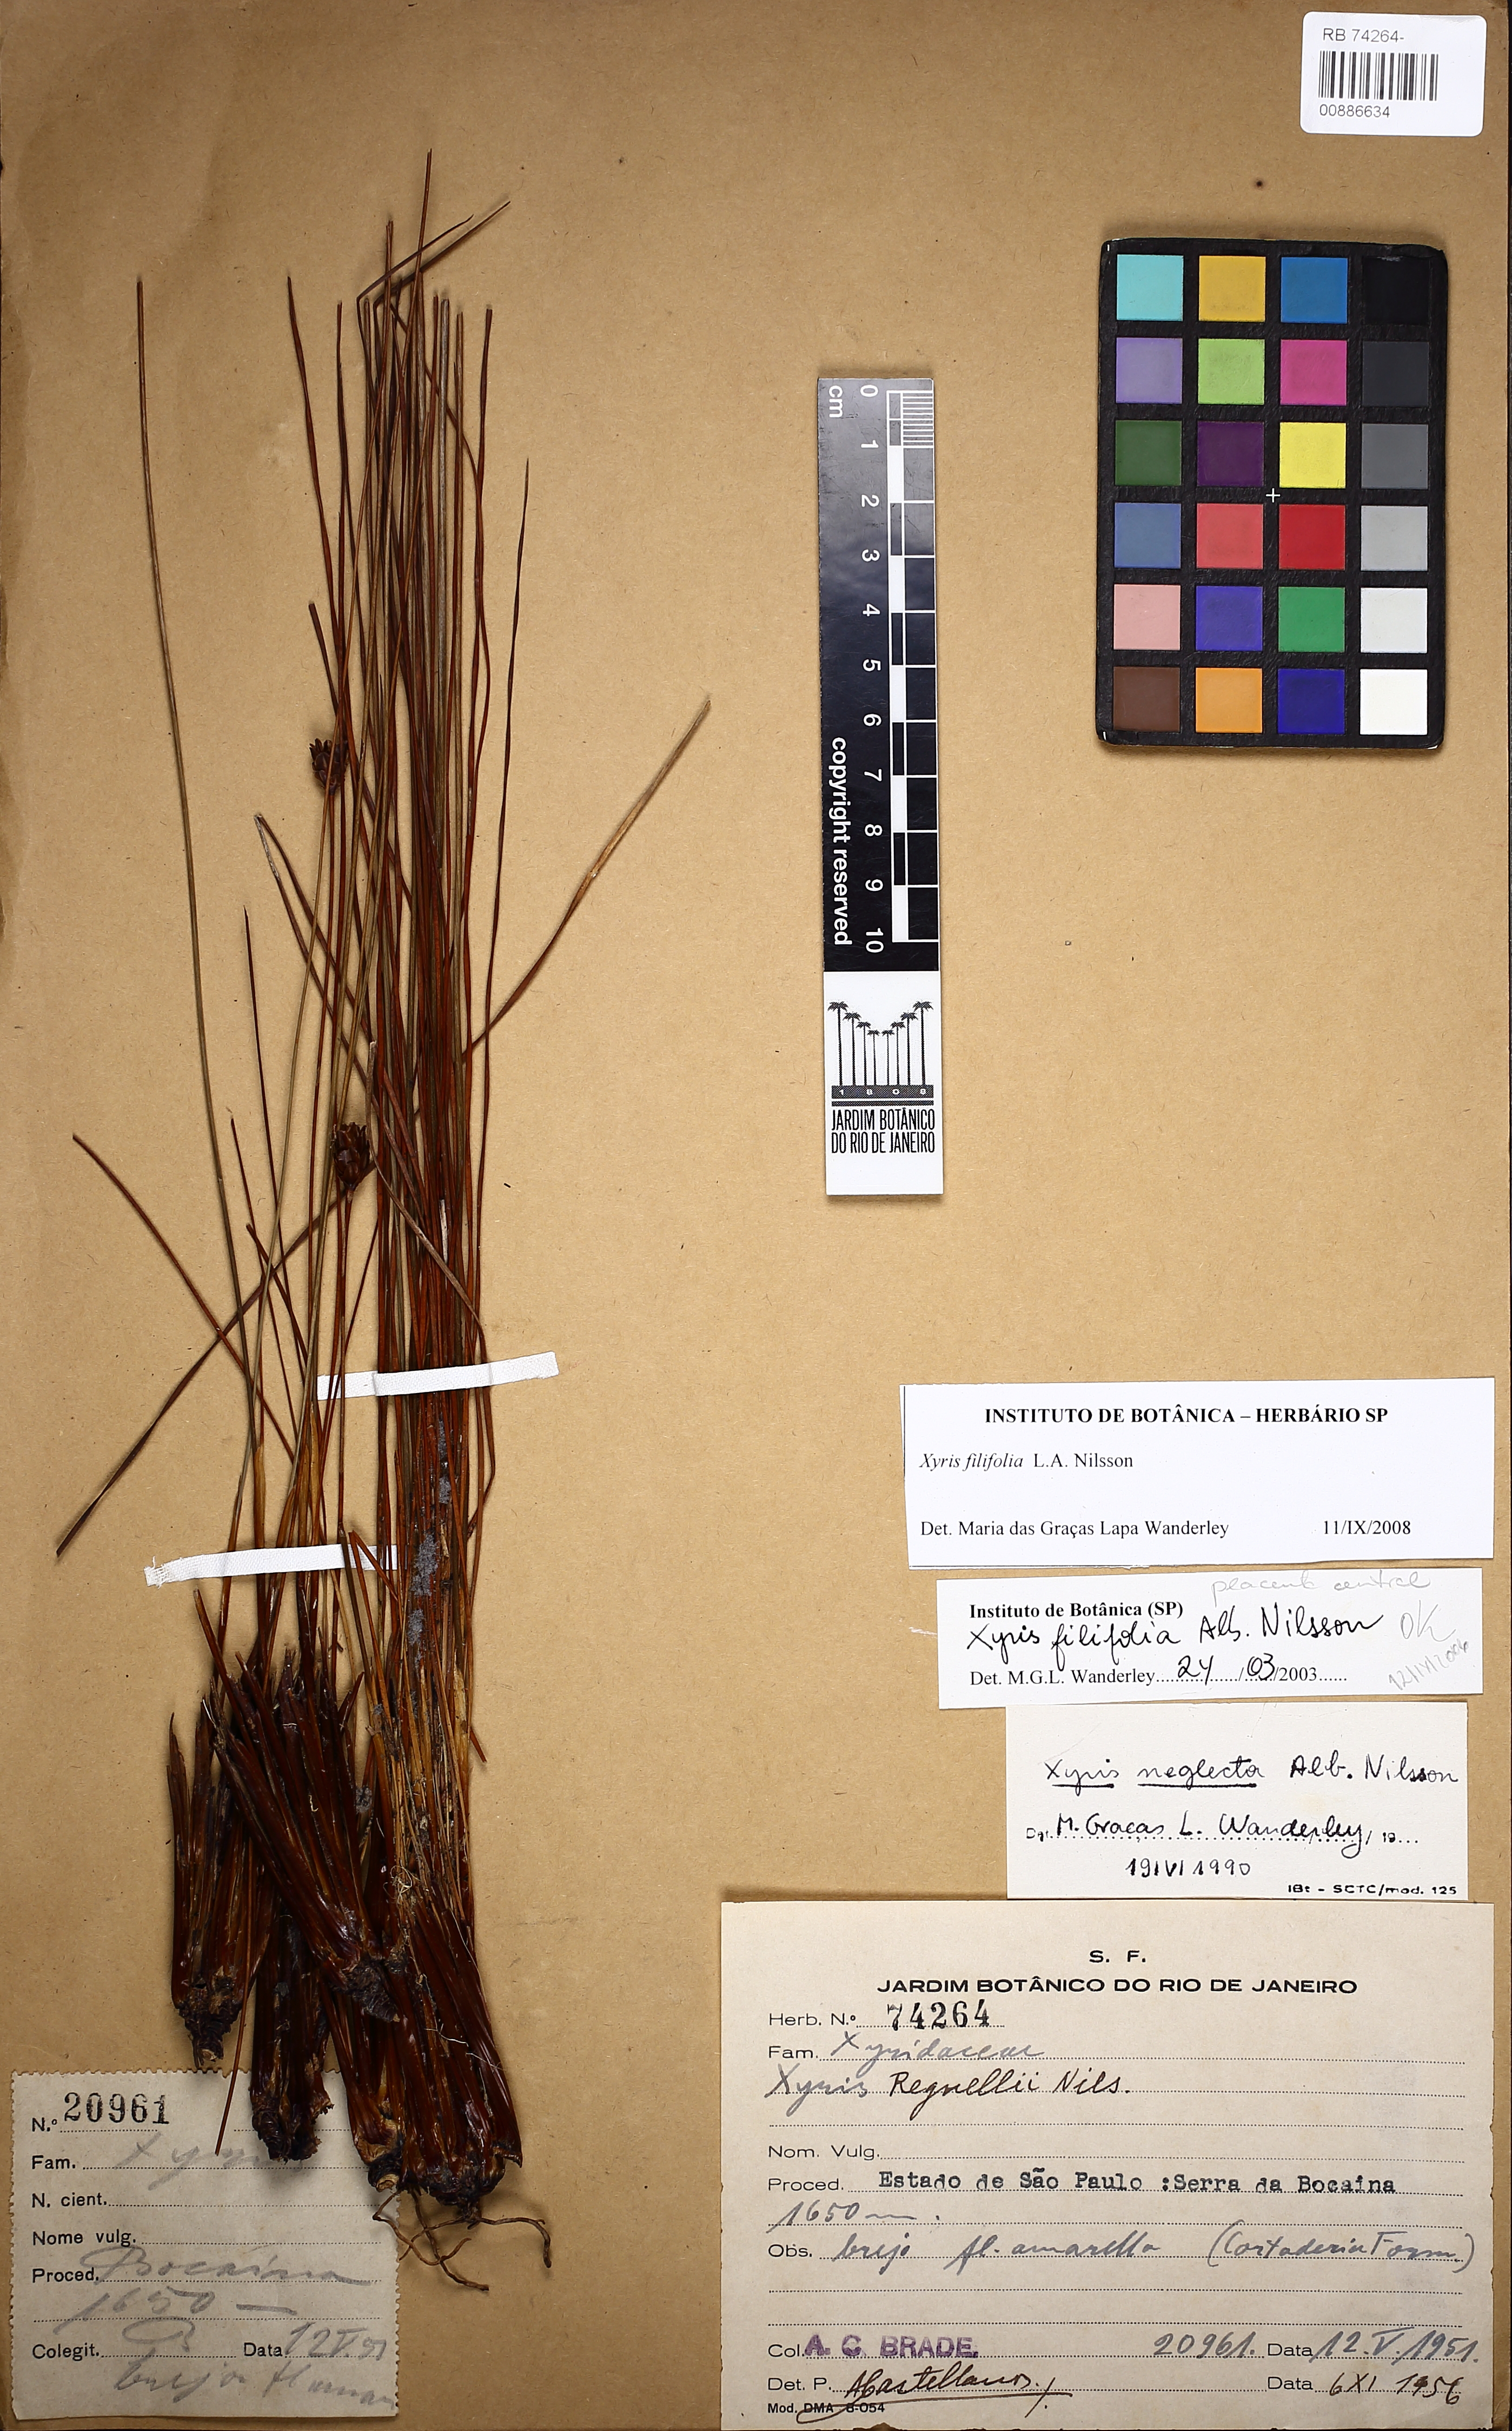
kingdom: Plantae
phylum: Tracheophyta
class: Liliopsida
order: Poales
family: Xyridaceae
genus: Xyris
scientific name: Xyris filifolia
